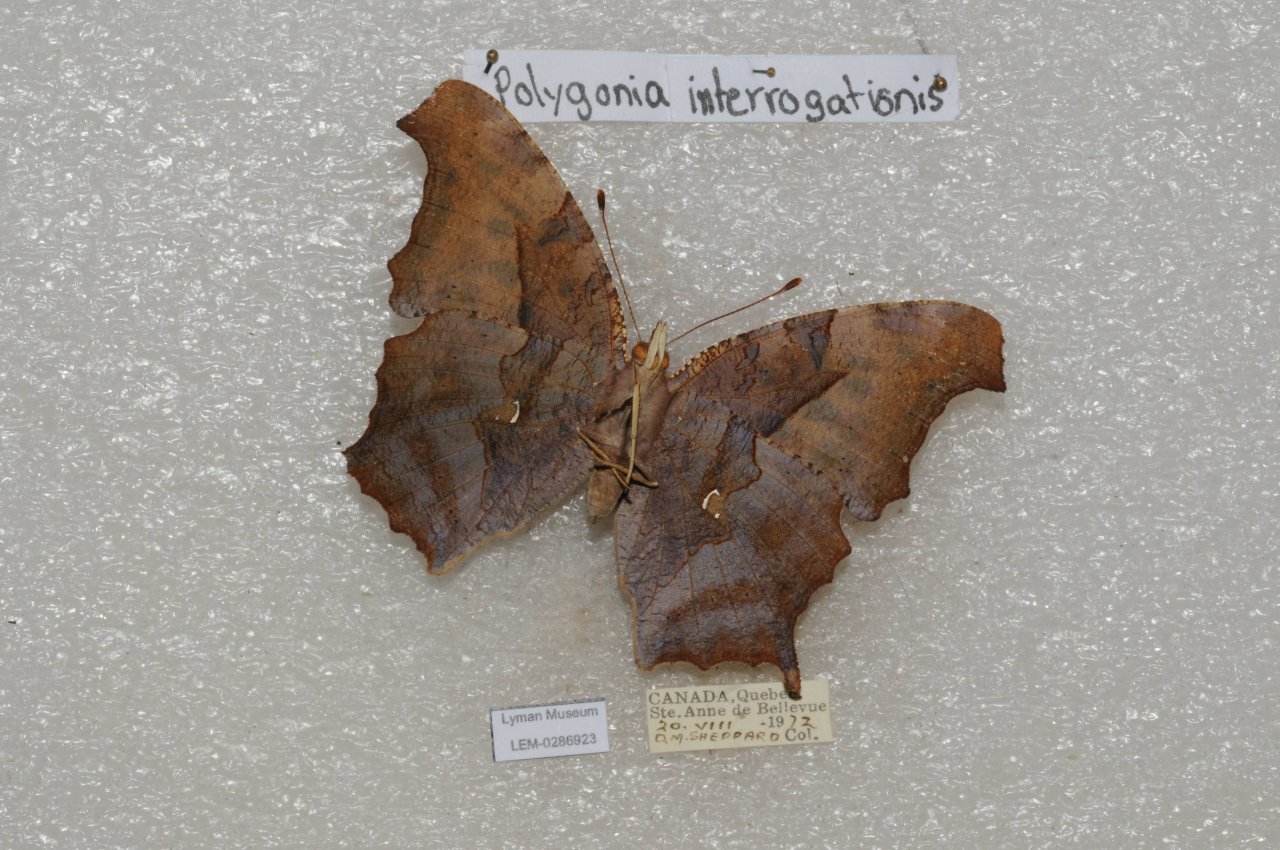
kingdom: Animalia
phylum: Arthropoda
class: Insecta
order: Lepidoptera
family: Nymphalidae
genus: Polygonia
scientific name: Polygonia interrogationis
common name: Question Mark
